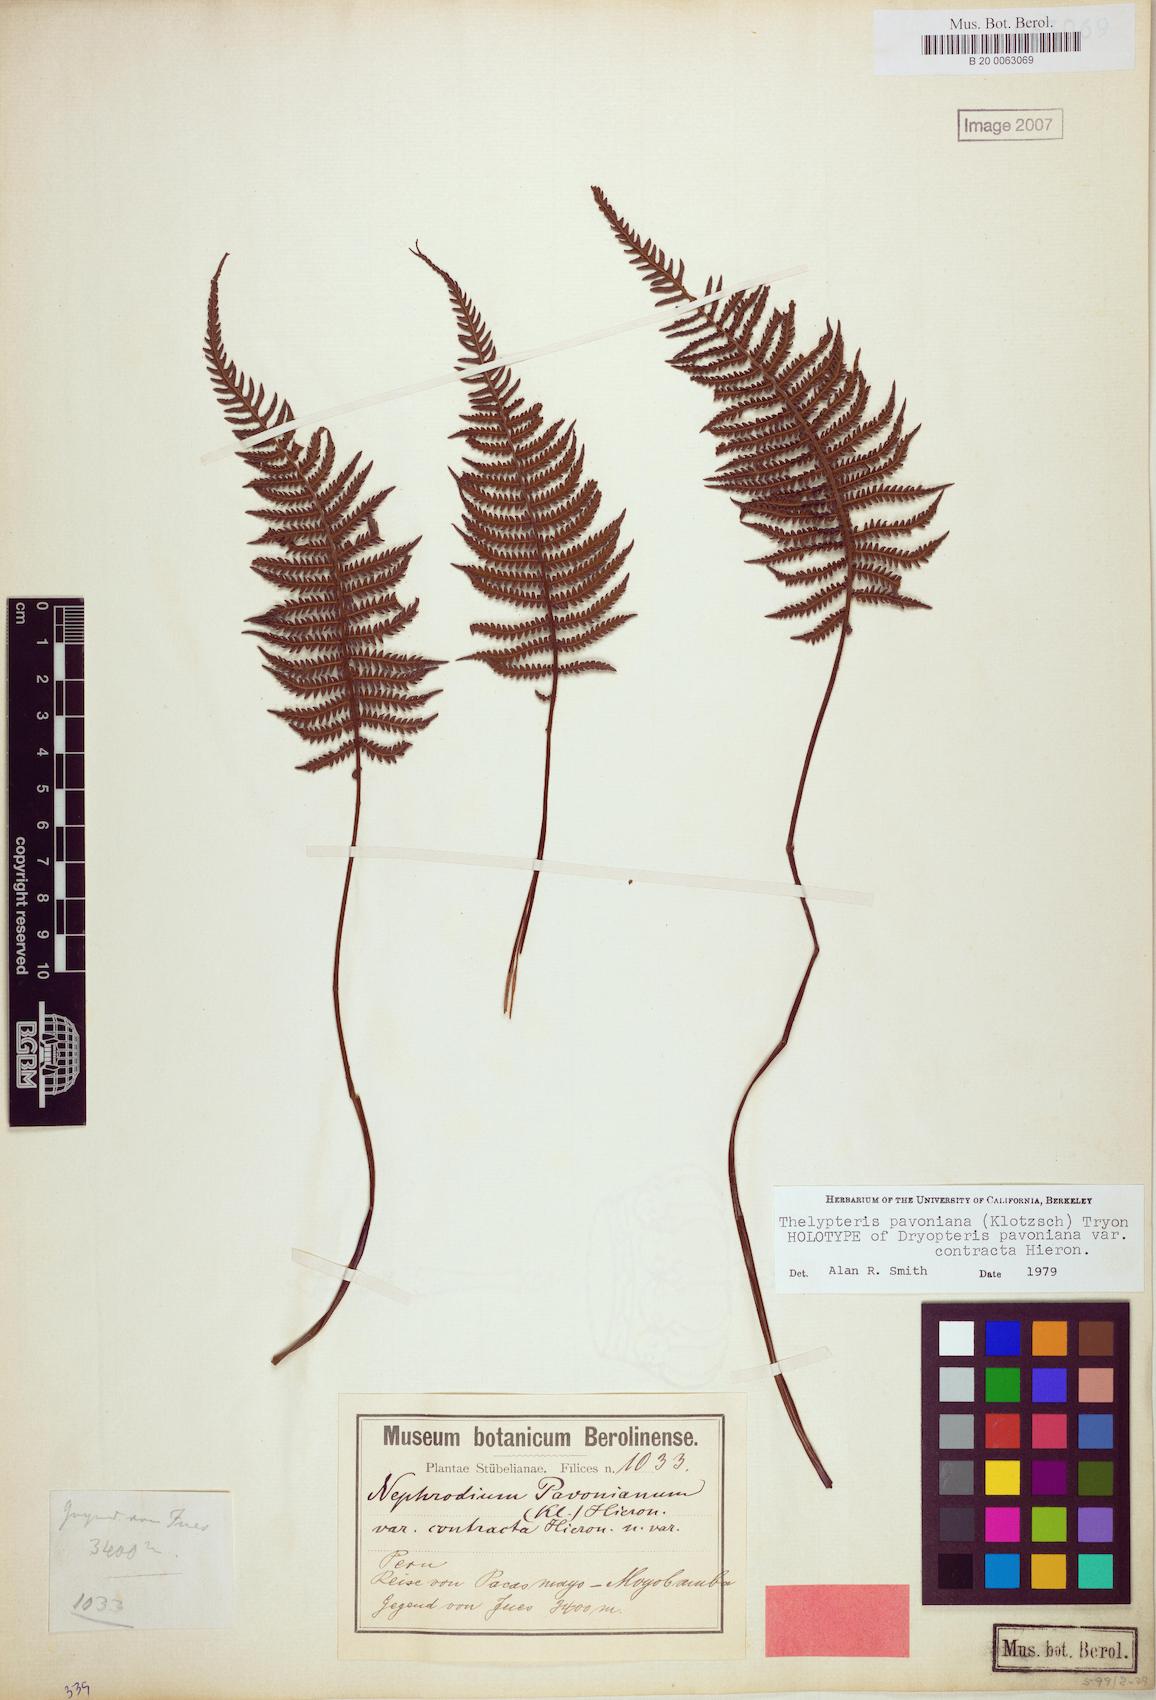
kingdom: Plantae
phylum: Tracheophyta
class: Polypodiopsida
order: Polypodiales
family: Thelypteridaceae
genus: Amauropelta
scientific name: Amauropelta pavoniana
